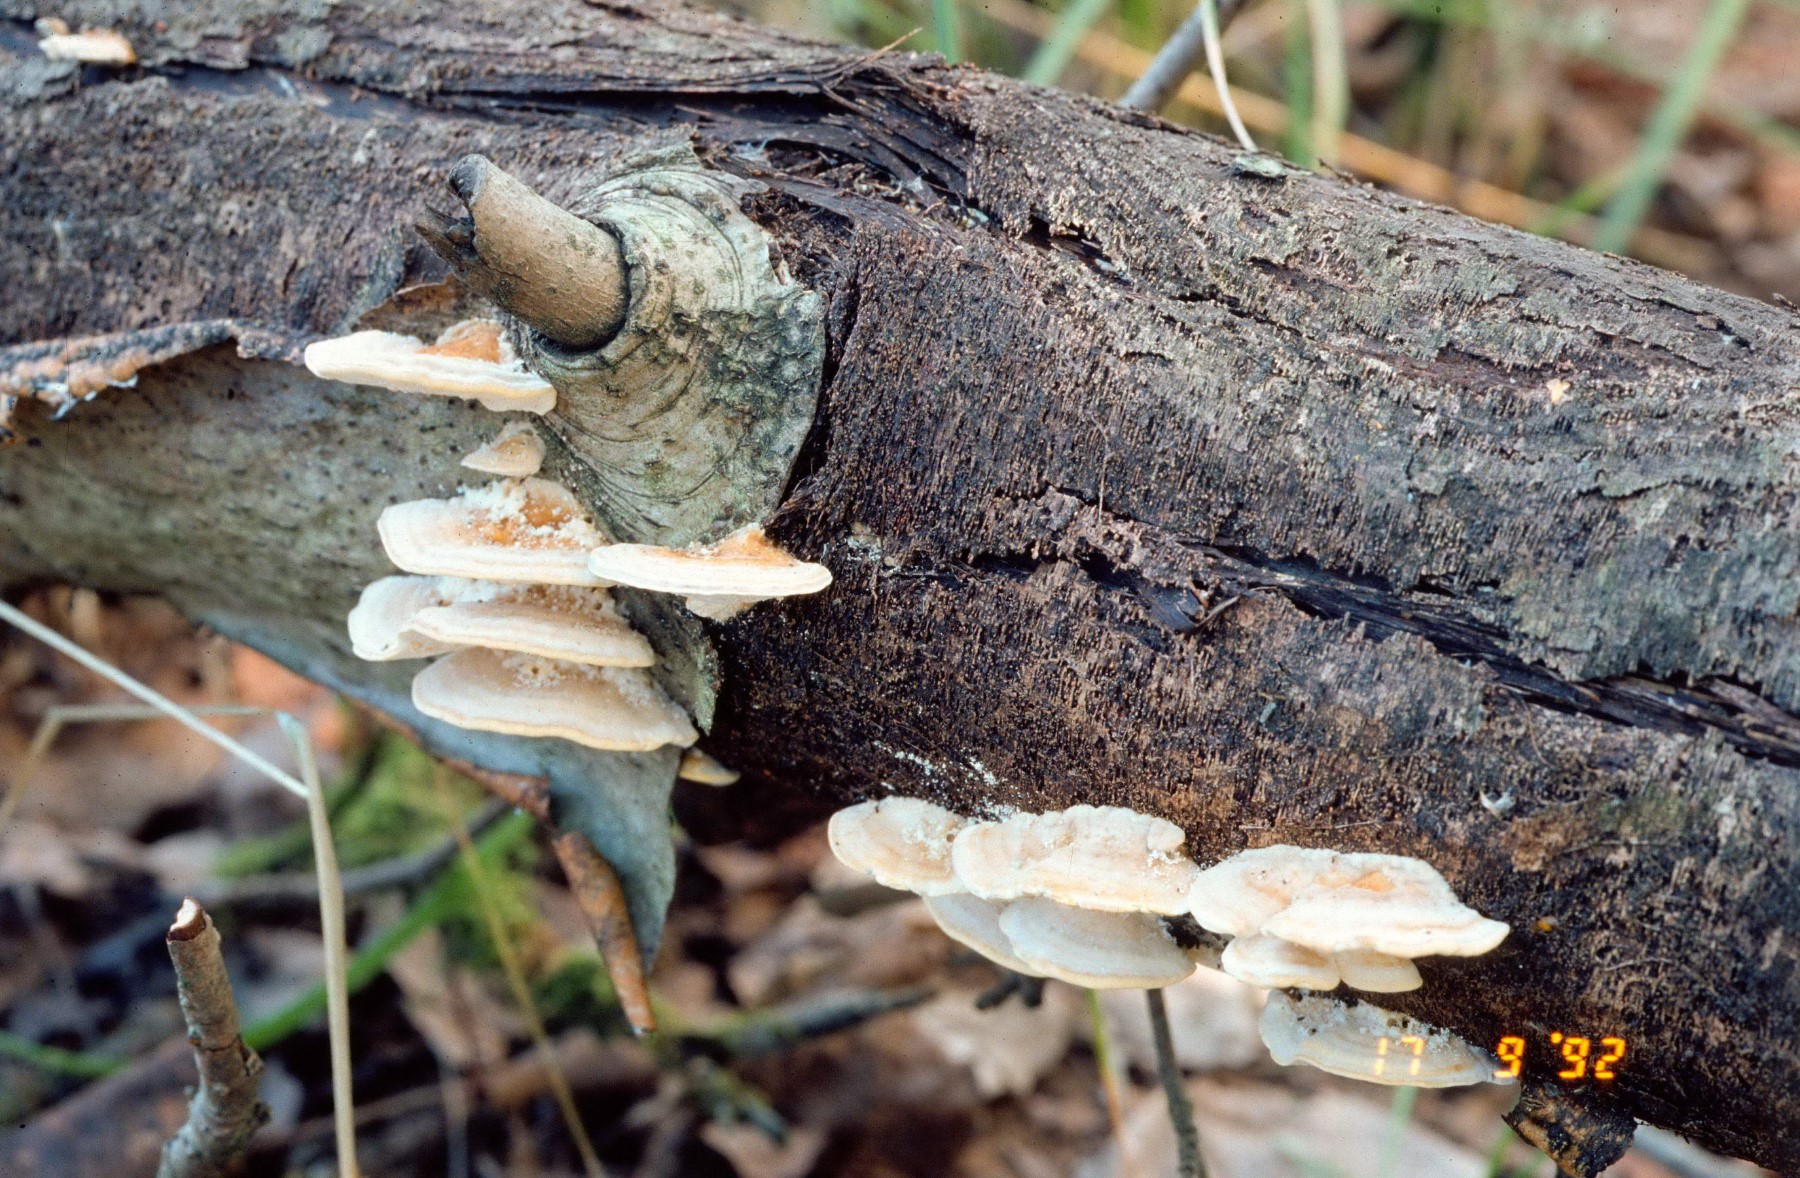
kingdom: Fungi
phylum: Basidiomycota
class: Agaricomycetes
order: Polyporales
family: Polyporaceae
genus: Trametes
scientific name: Trametes ochracea
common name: bæltet læderporesvamp
